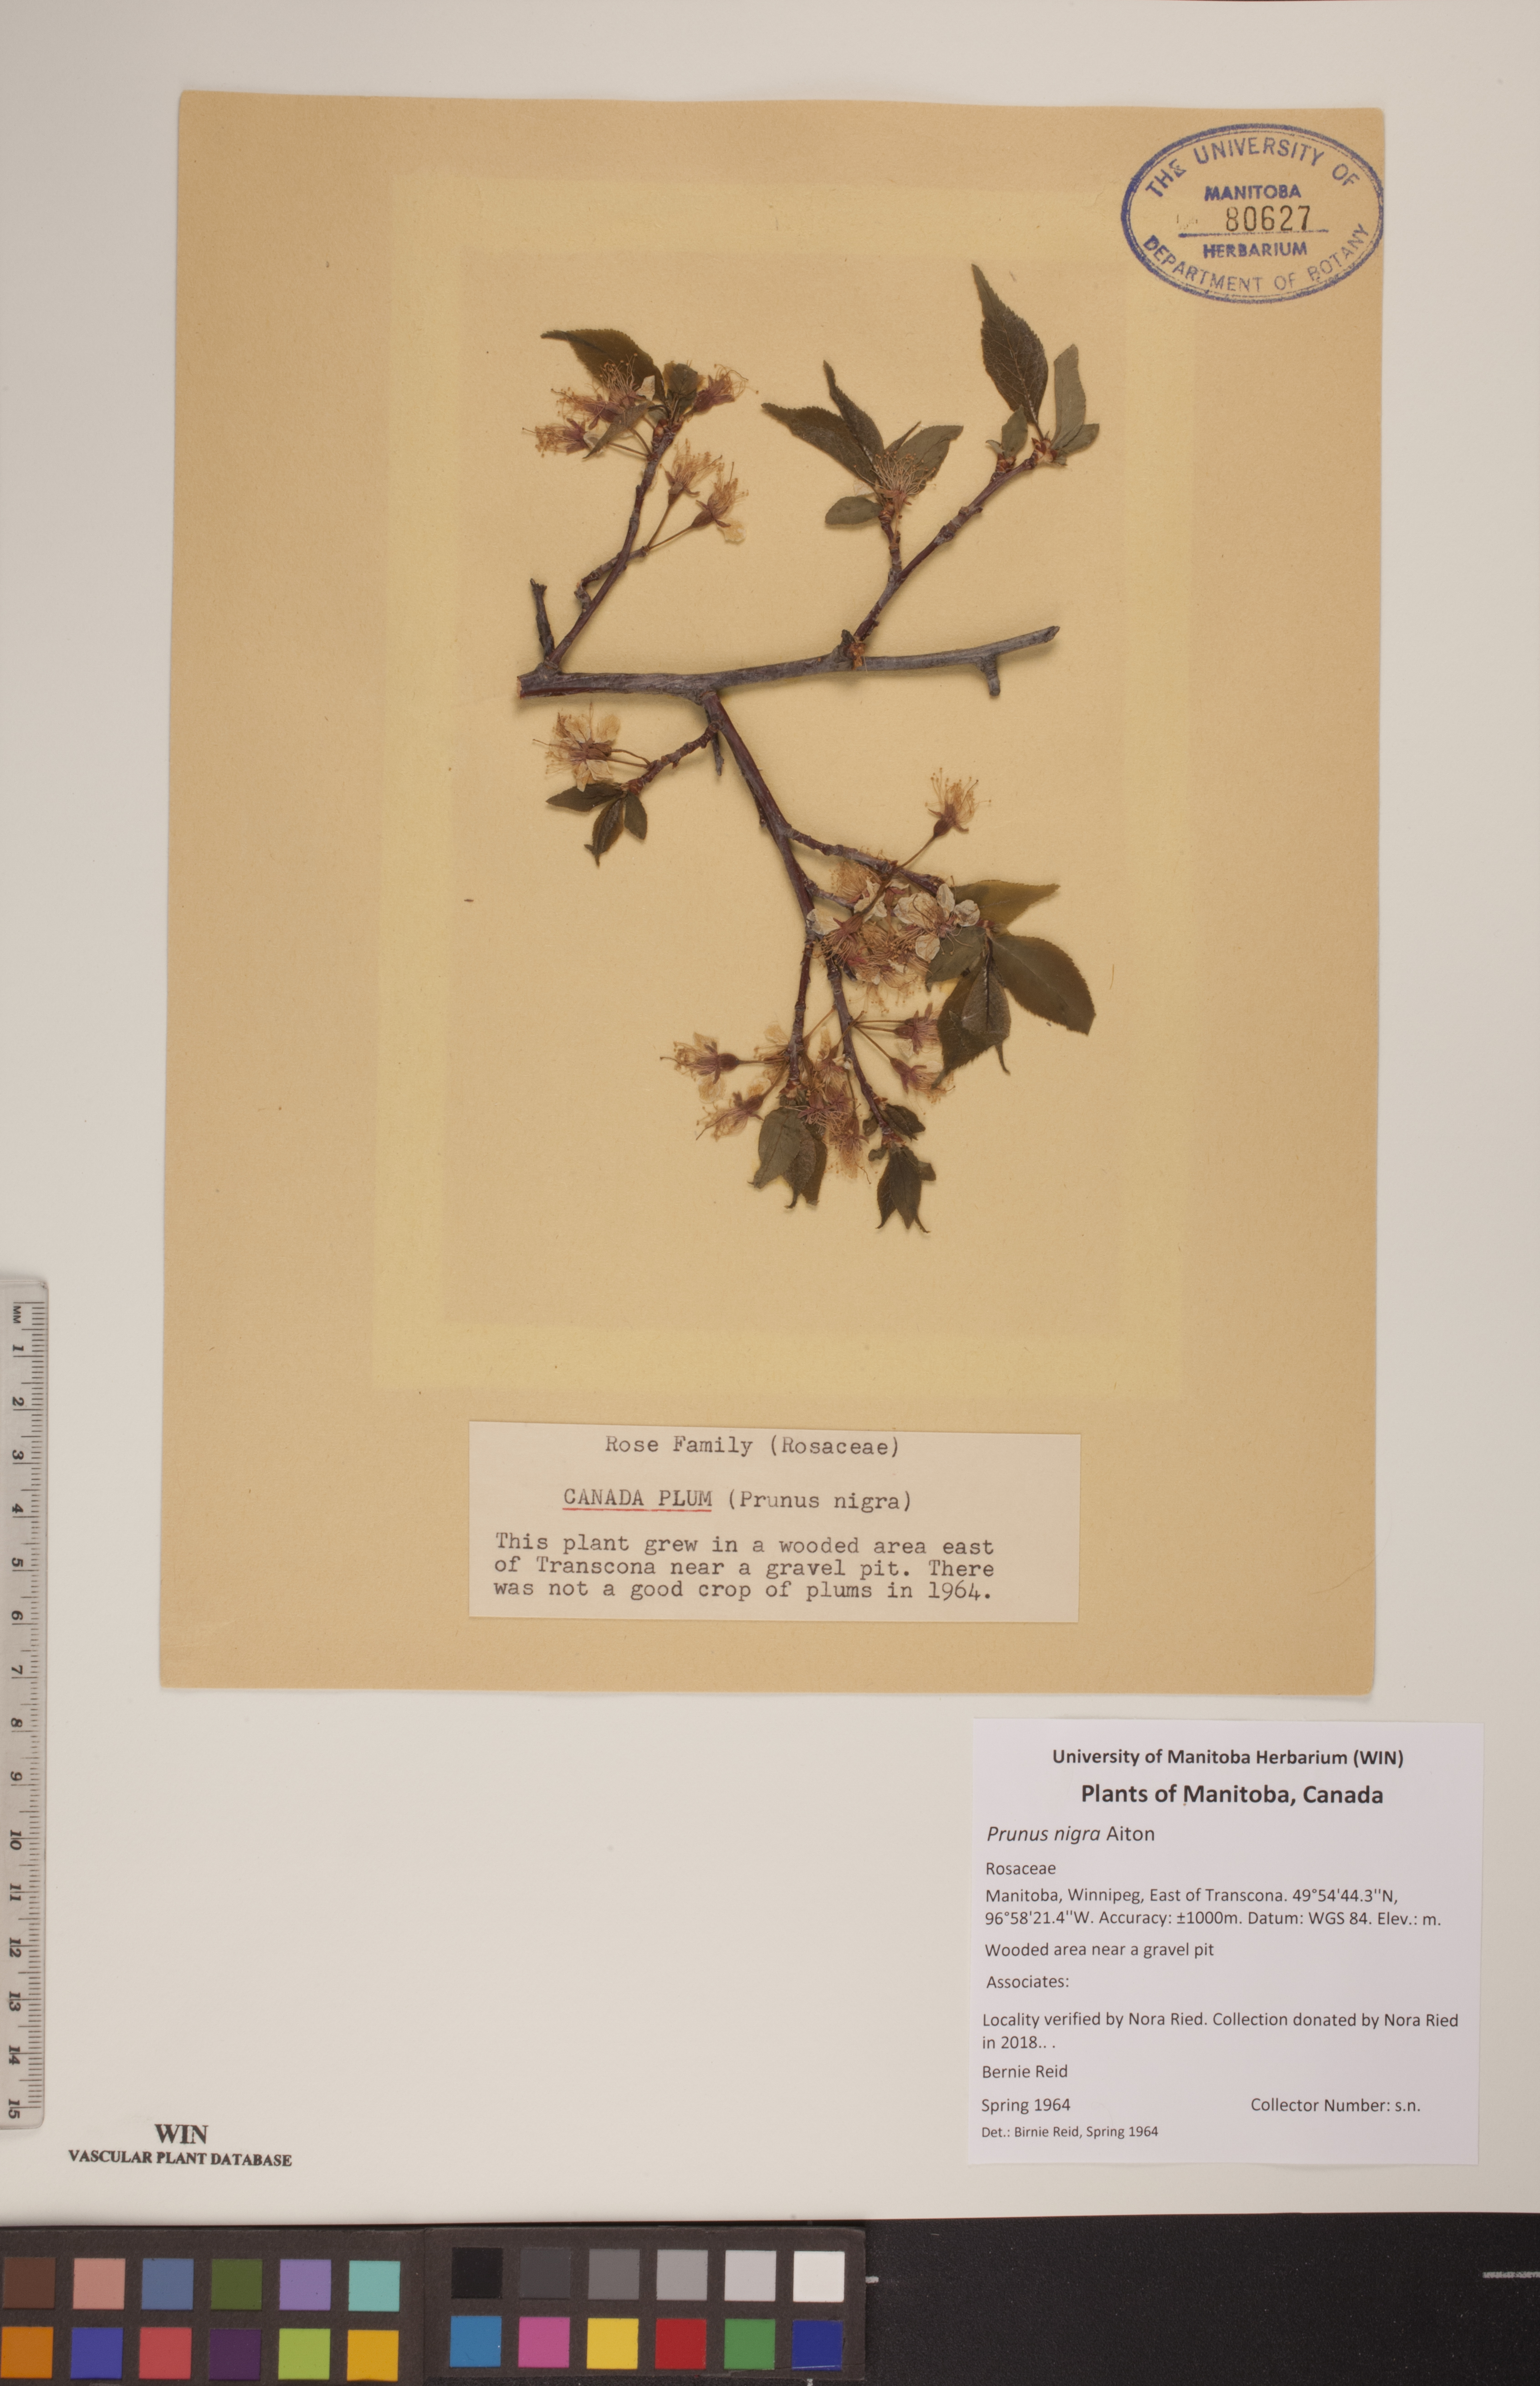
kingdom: Plantae
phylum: Tracheophyta
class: Magnoliopsida
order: Rosales
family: Rosaceae
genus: Prunus
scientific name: Prunus nigra
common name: Black plum
